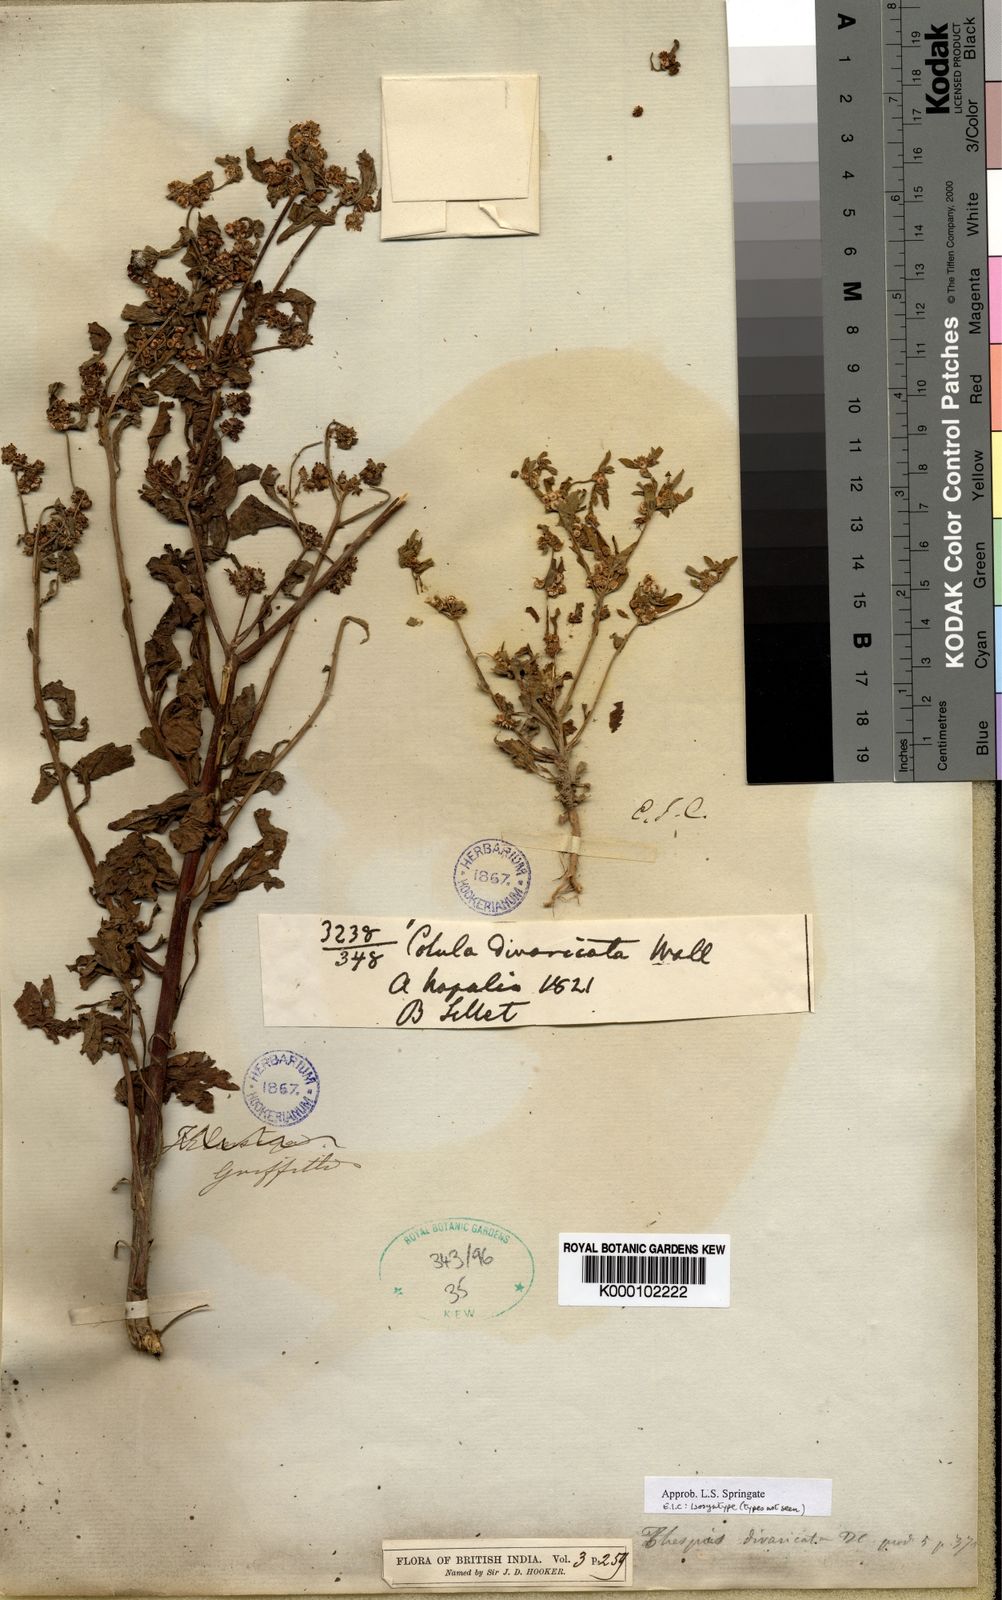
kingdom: Plantae
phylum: Tracheophyta
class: Magnoliopsida
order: Asterales
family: Asteraceae
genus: Thespis
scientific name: Thespis divaricata
